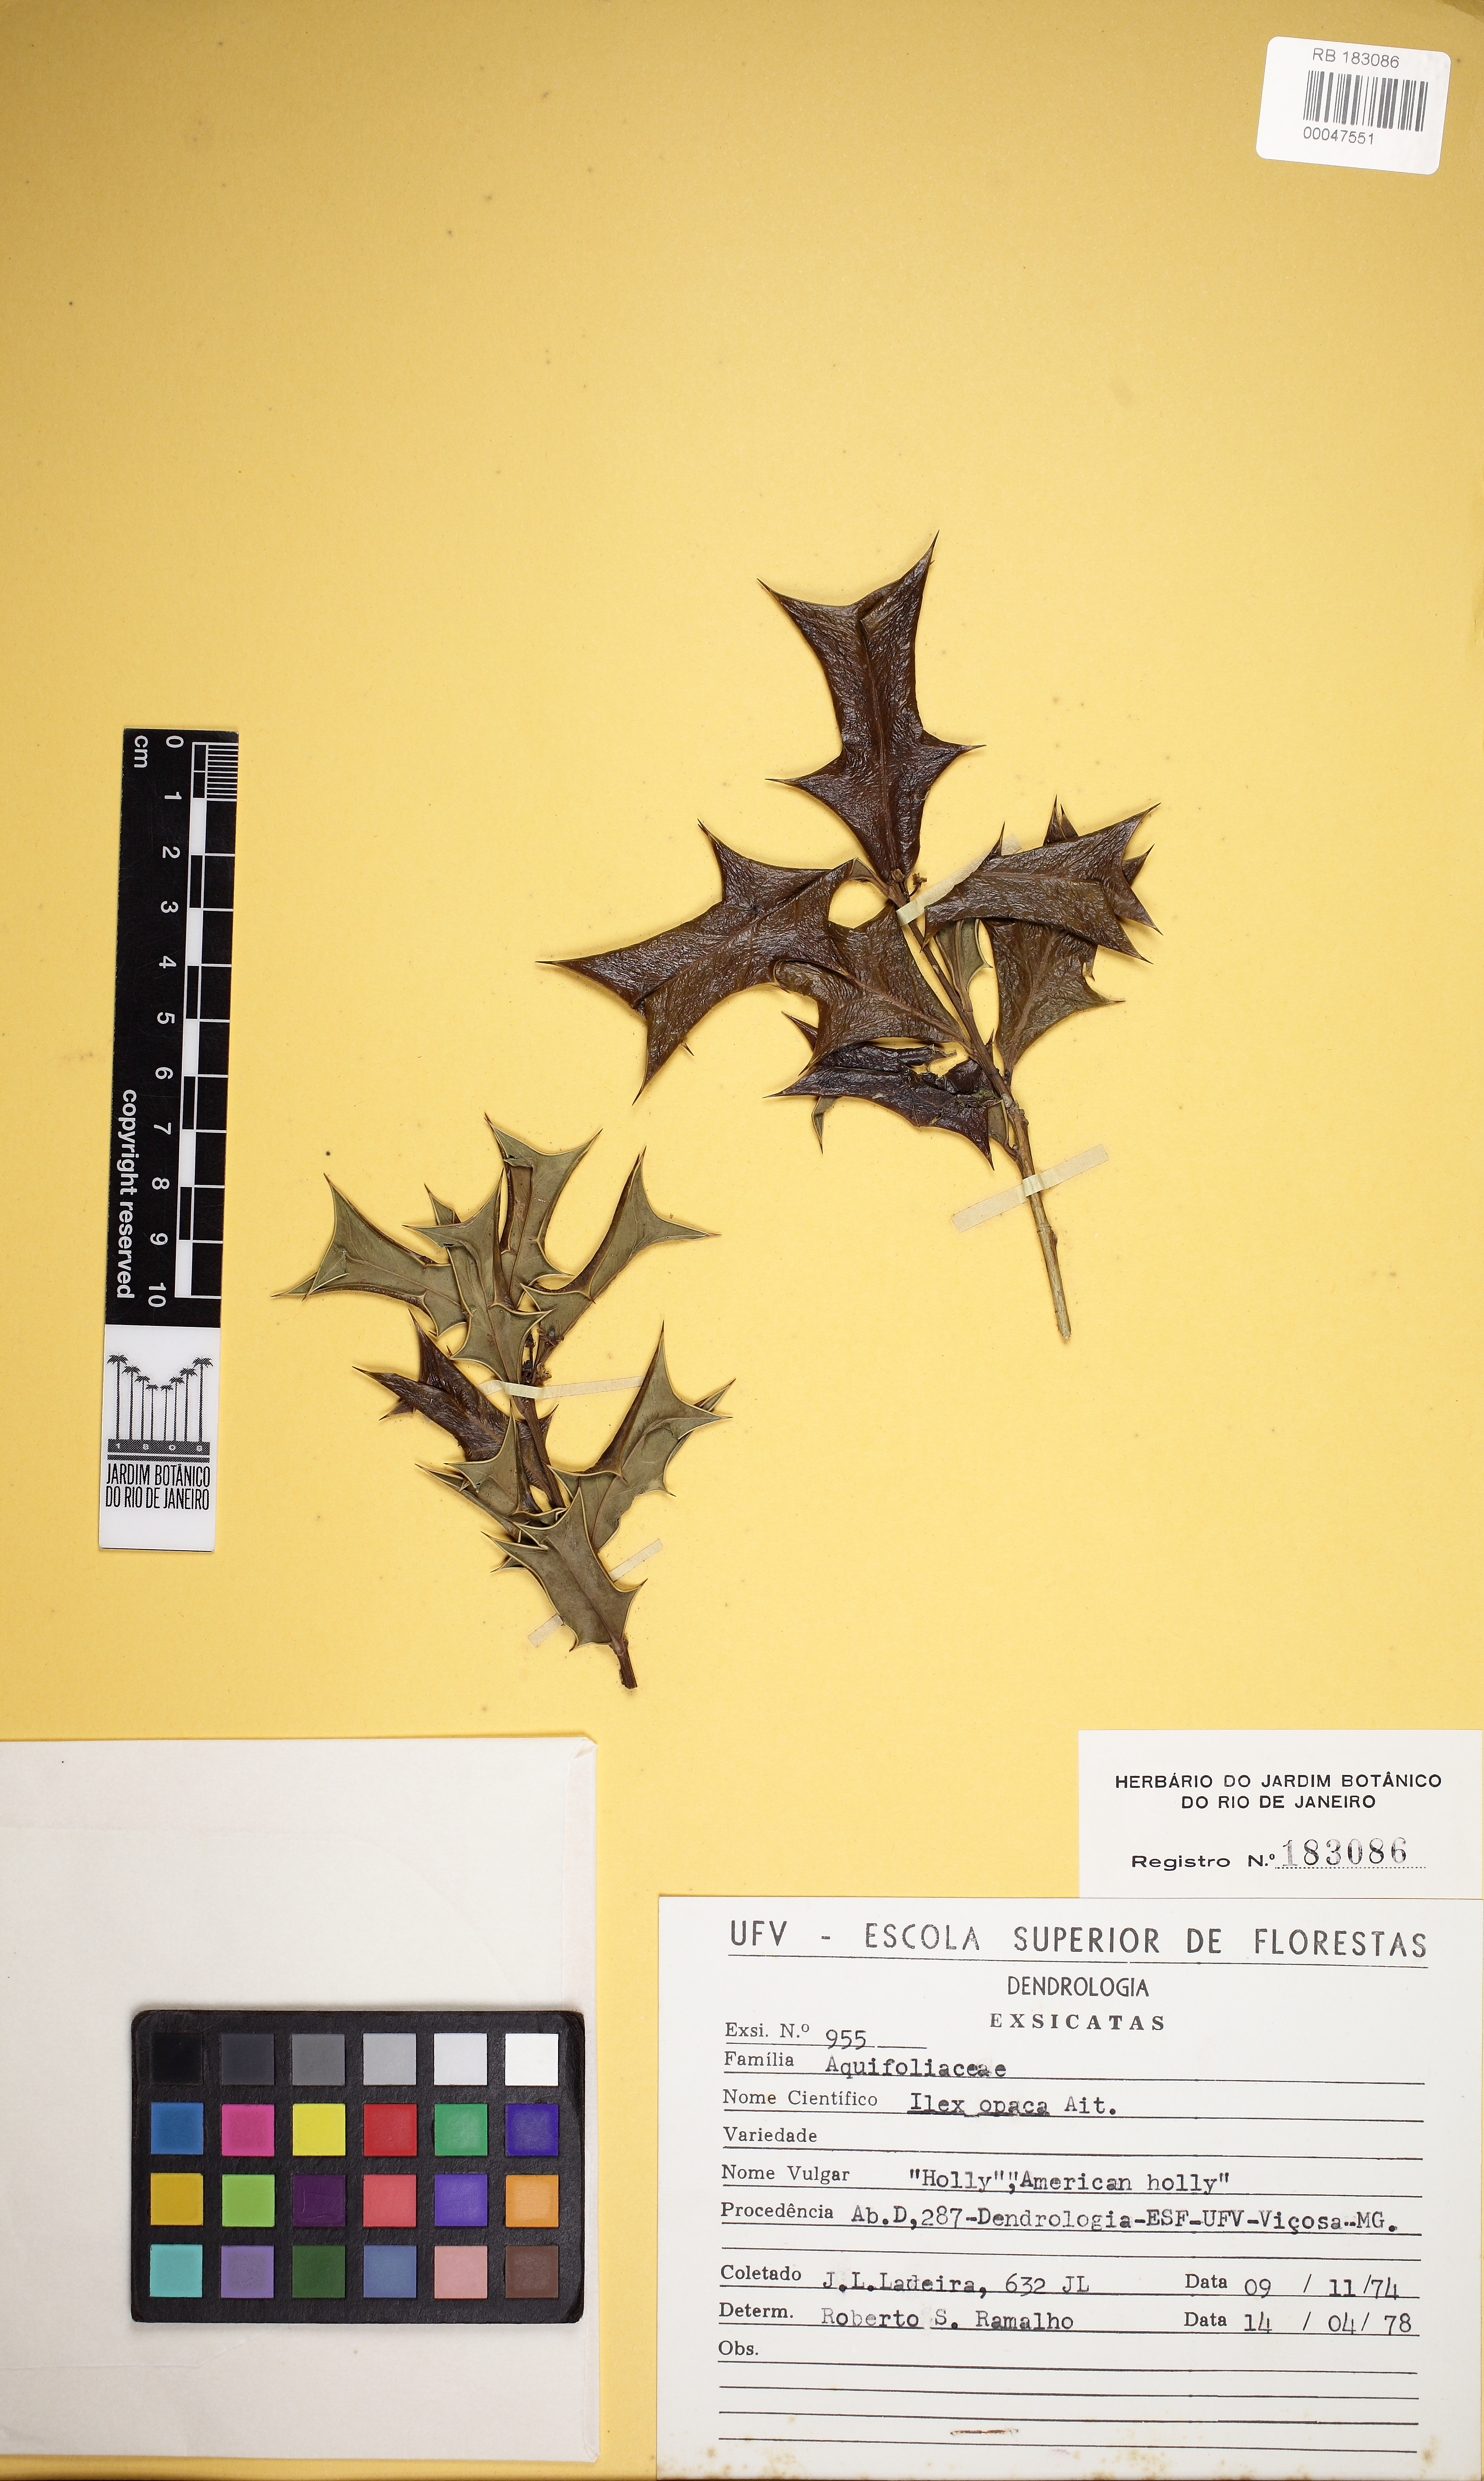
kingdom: Plantae
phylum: Tracheophyta
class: Magnoliopsida
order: Aquifoliales
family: Aquifoliaceae
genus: Ilex
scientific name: Ilex opaca
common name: American holly
